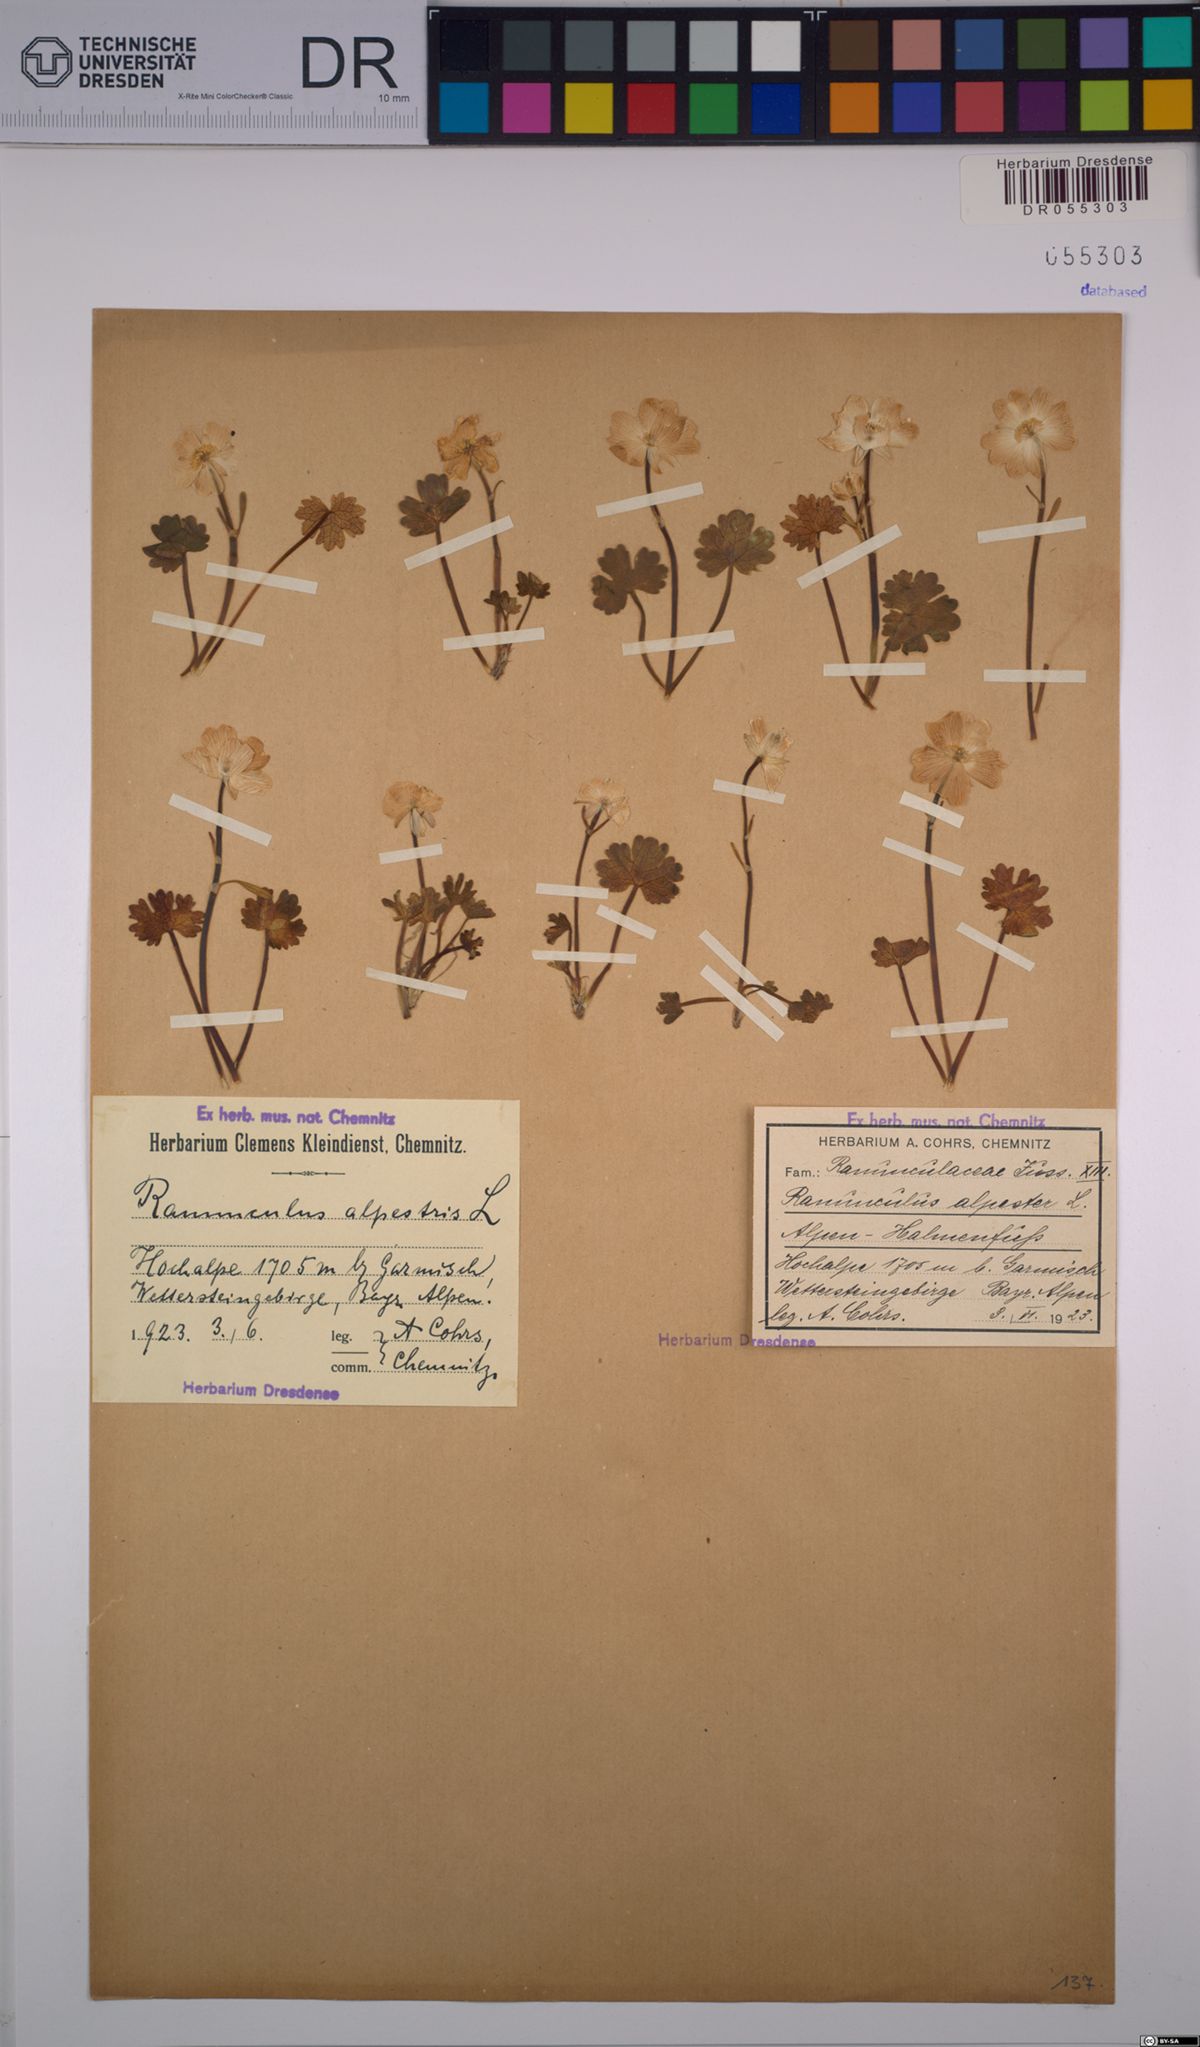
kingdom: Plantae
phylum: Tracheophyta
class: Magnoliopsida
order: Ranunculales
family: Ranunculaceae
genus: Ranunculus
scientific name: Ranunculus alpestris
